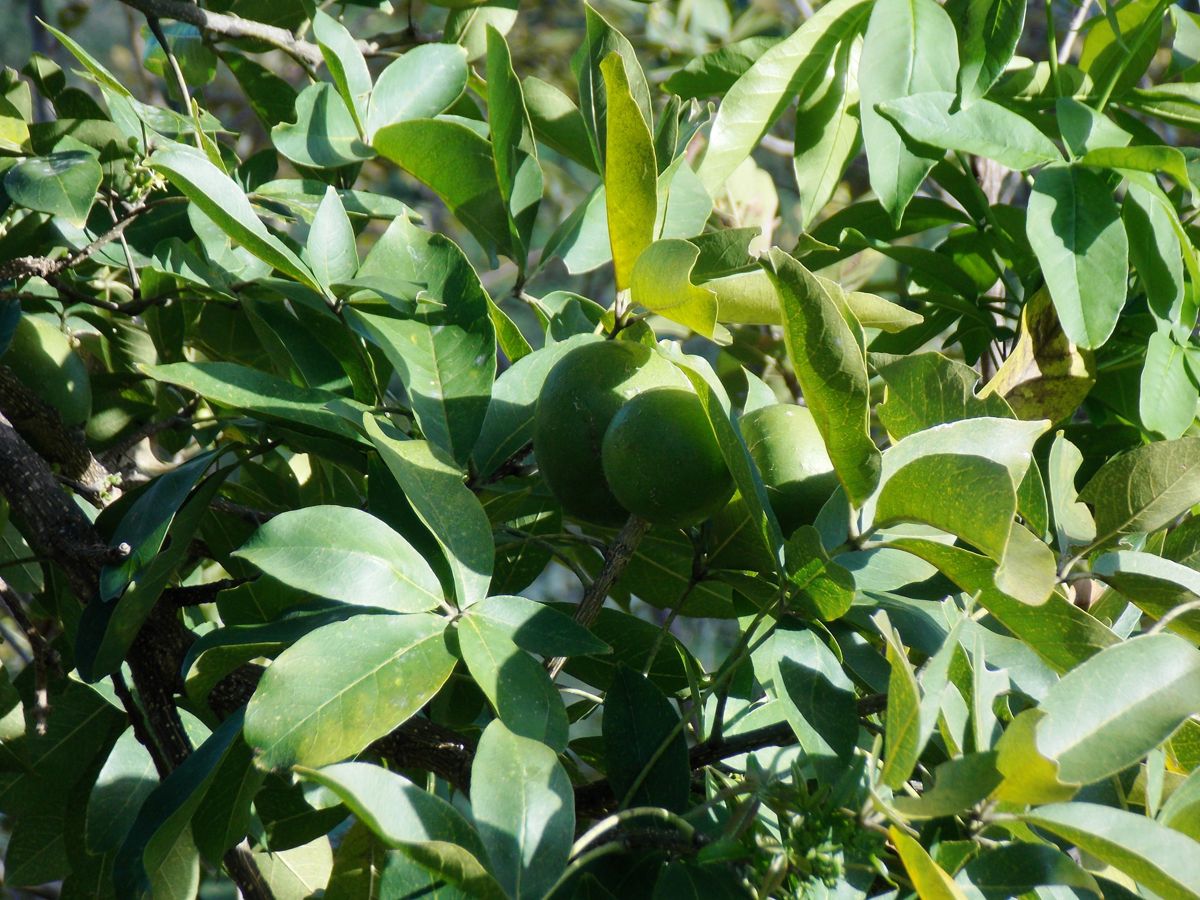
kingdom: Plantae
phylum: Tracheophyta
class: Magnoliopsida
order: Sapindales
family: Rutaceae
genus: Casimiroa
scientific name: Casimiroa edulis
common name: Mexican-apple
